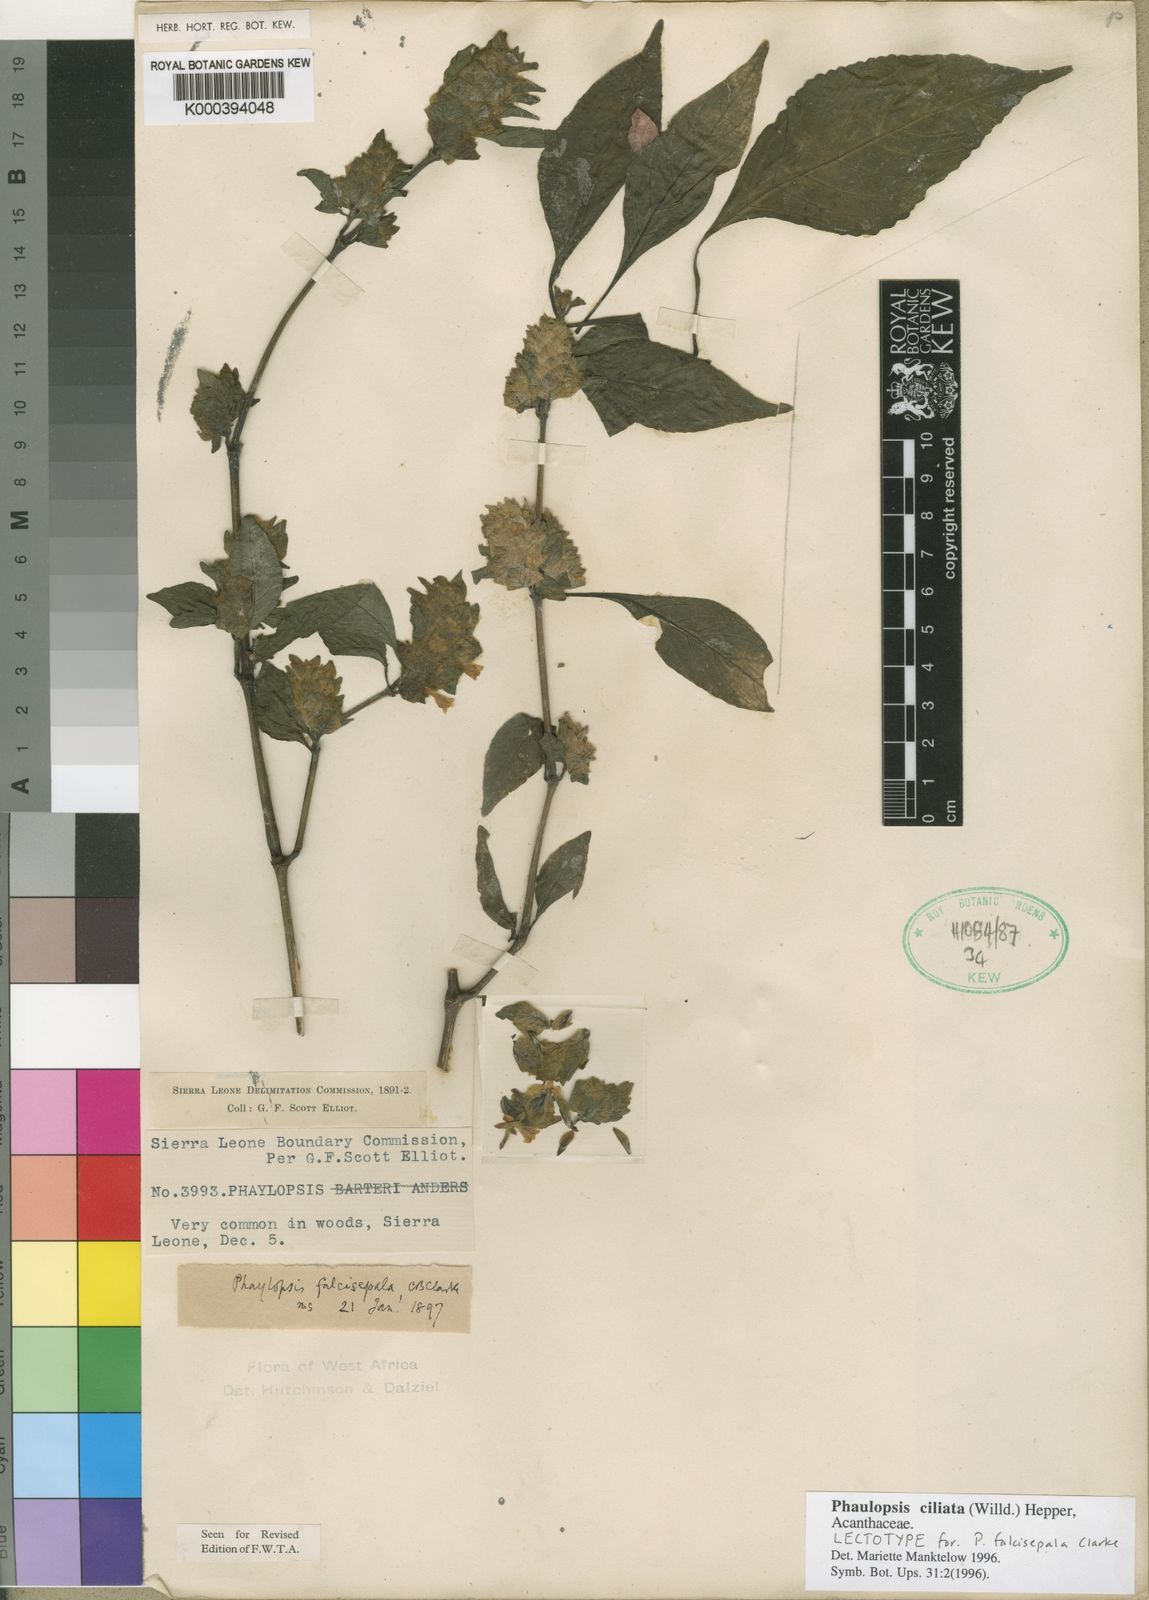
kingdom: Plantae
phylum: Tracheophyta
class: Magnoliopsida
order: Lamiales
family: Acanthaceae
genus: Phaulopsis
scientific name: Phaulopsis ciliata
